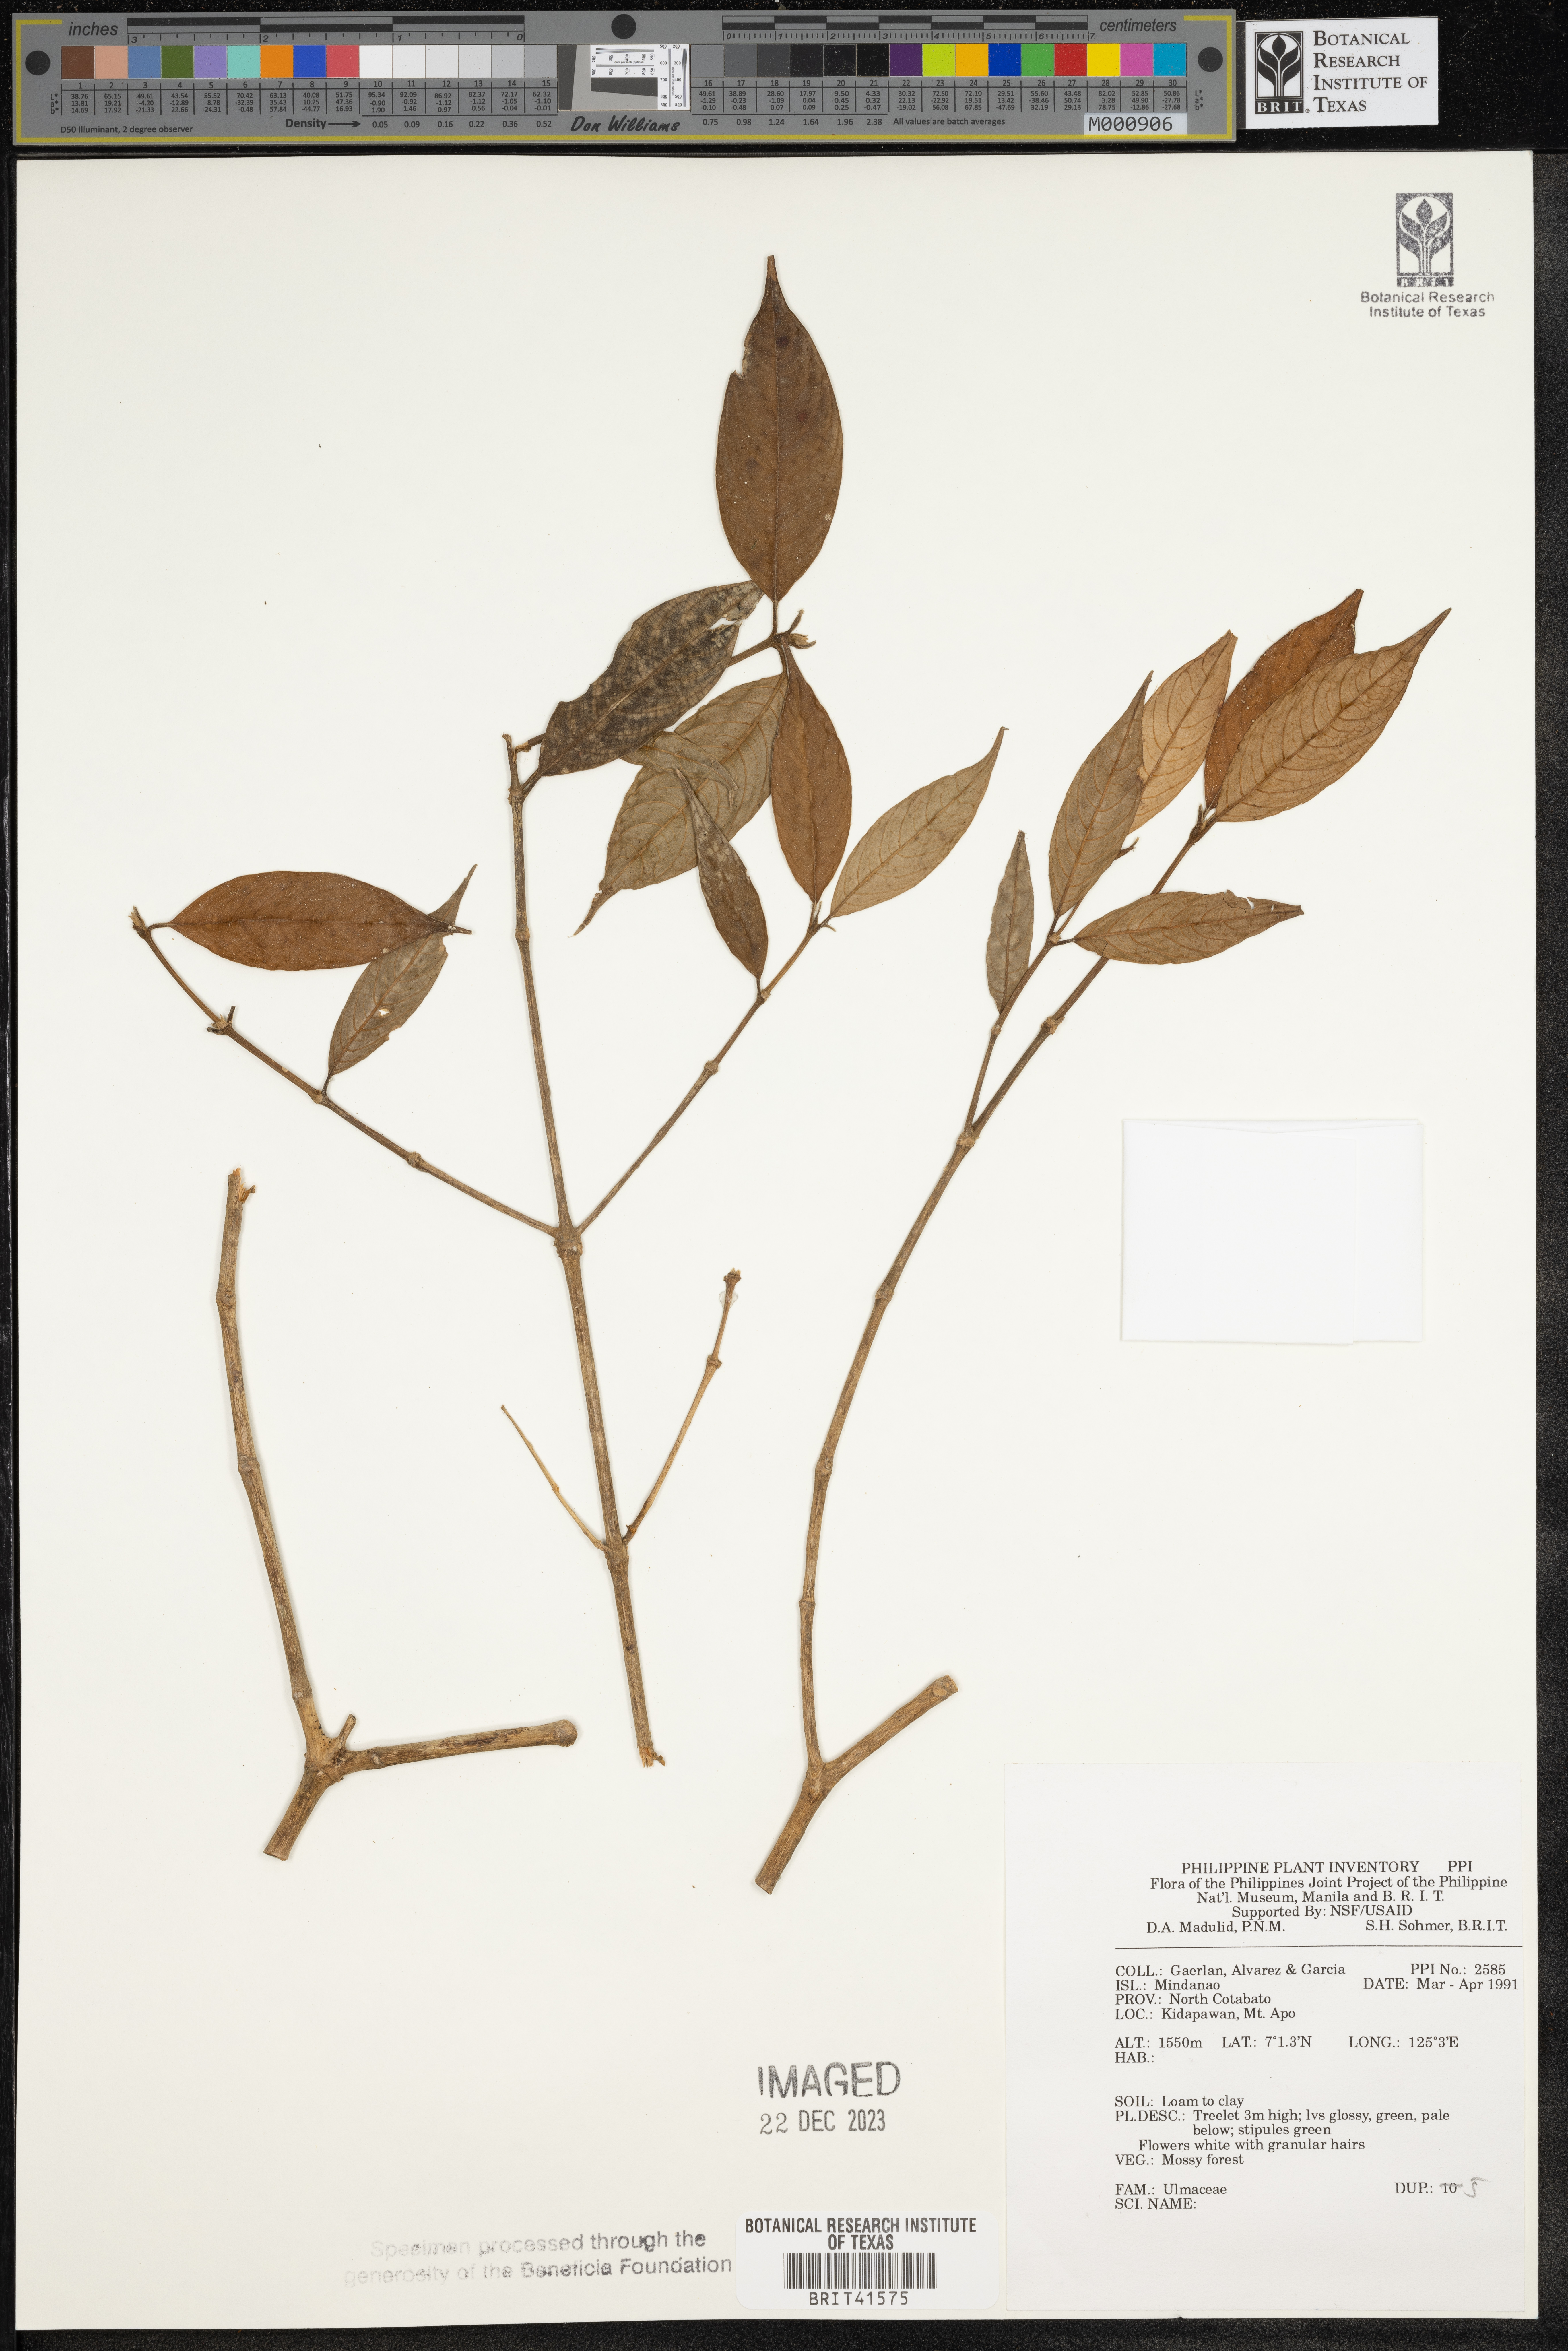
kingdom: Plantae
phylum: Tracheophyta
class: Magnoliopsida
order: Rosales
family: Ulmaceae
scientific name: Ulmaceae
